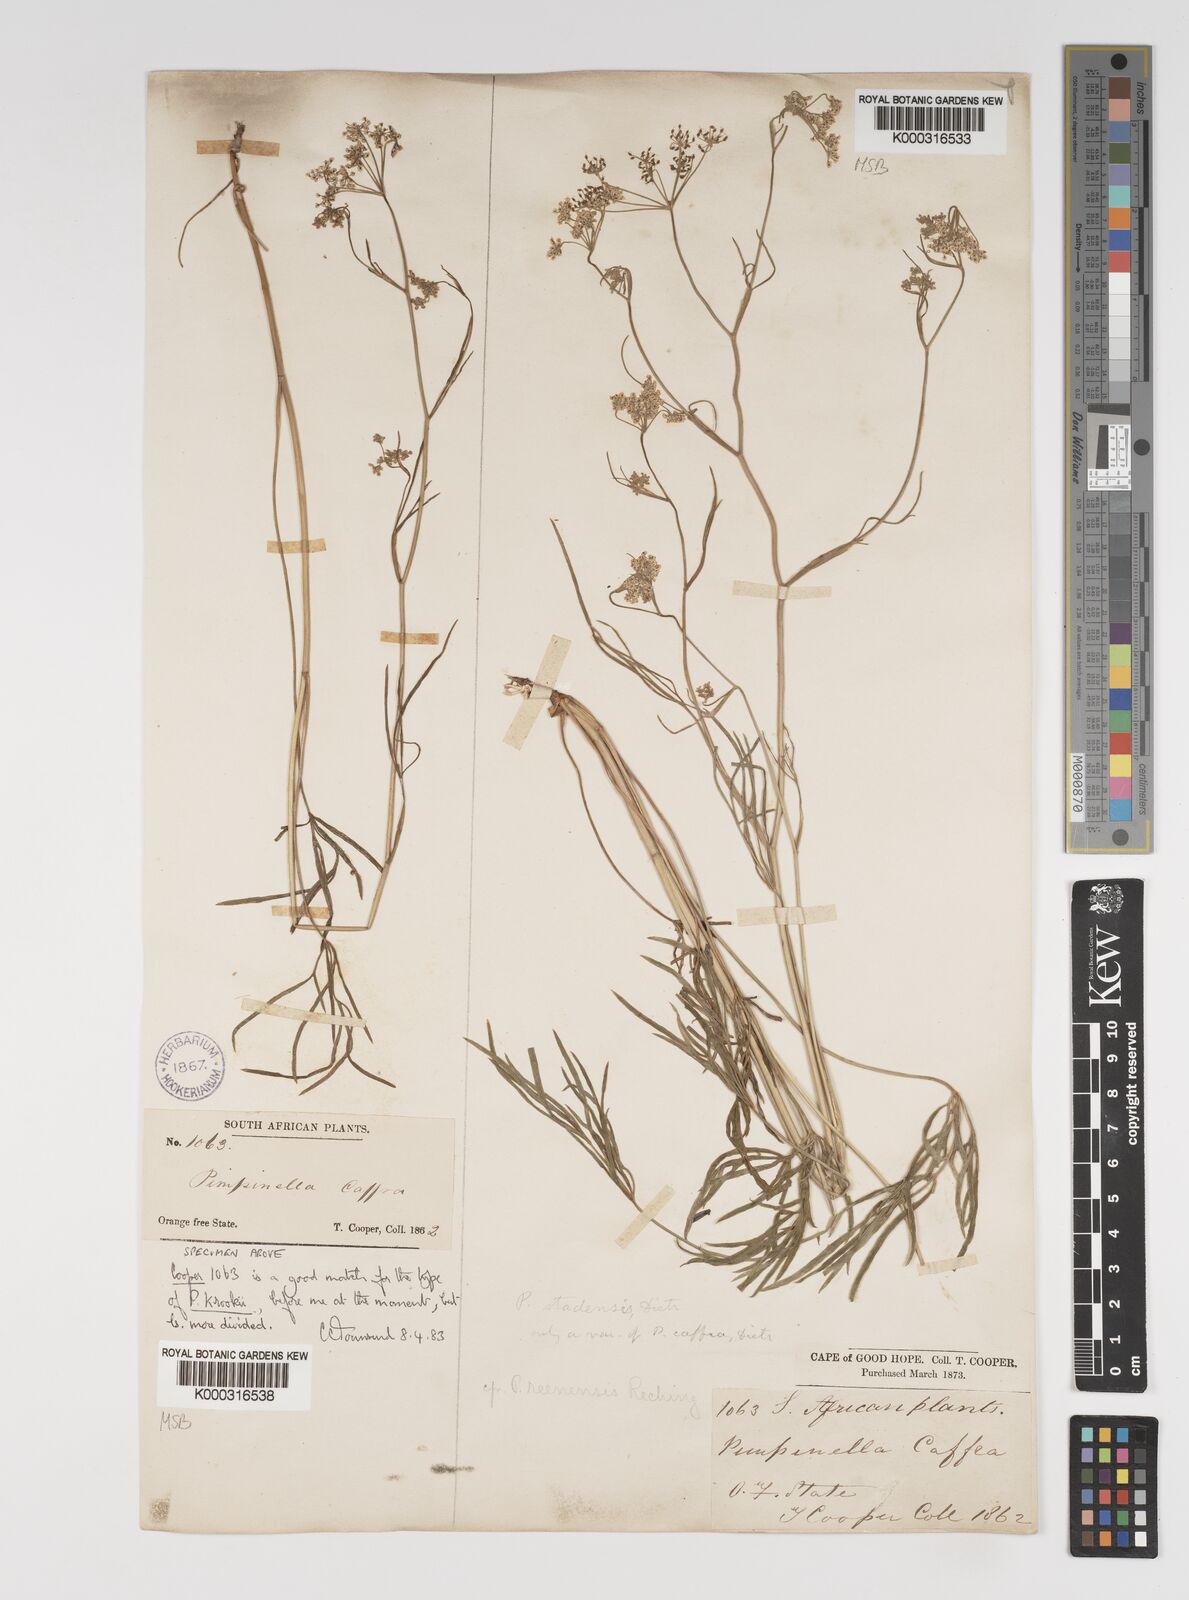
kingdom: Plantae
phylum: Tracheophyta
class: Magnoliopsida
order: Apiales
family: Apiaceae
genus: Pimpinella
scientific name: Pimpinella caffra
